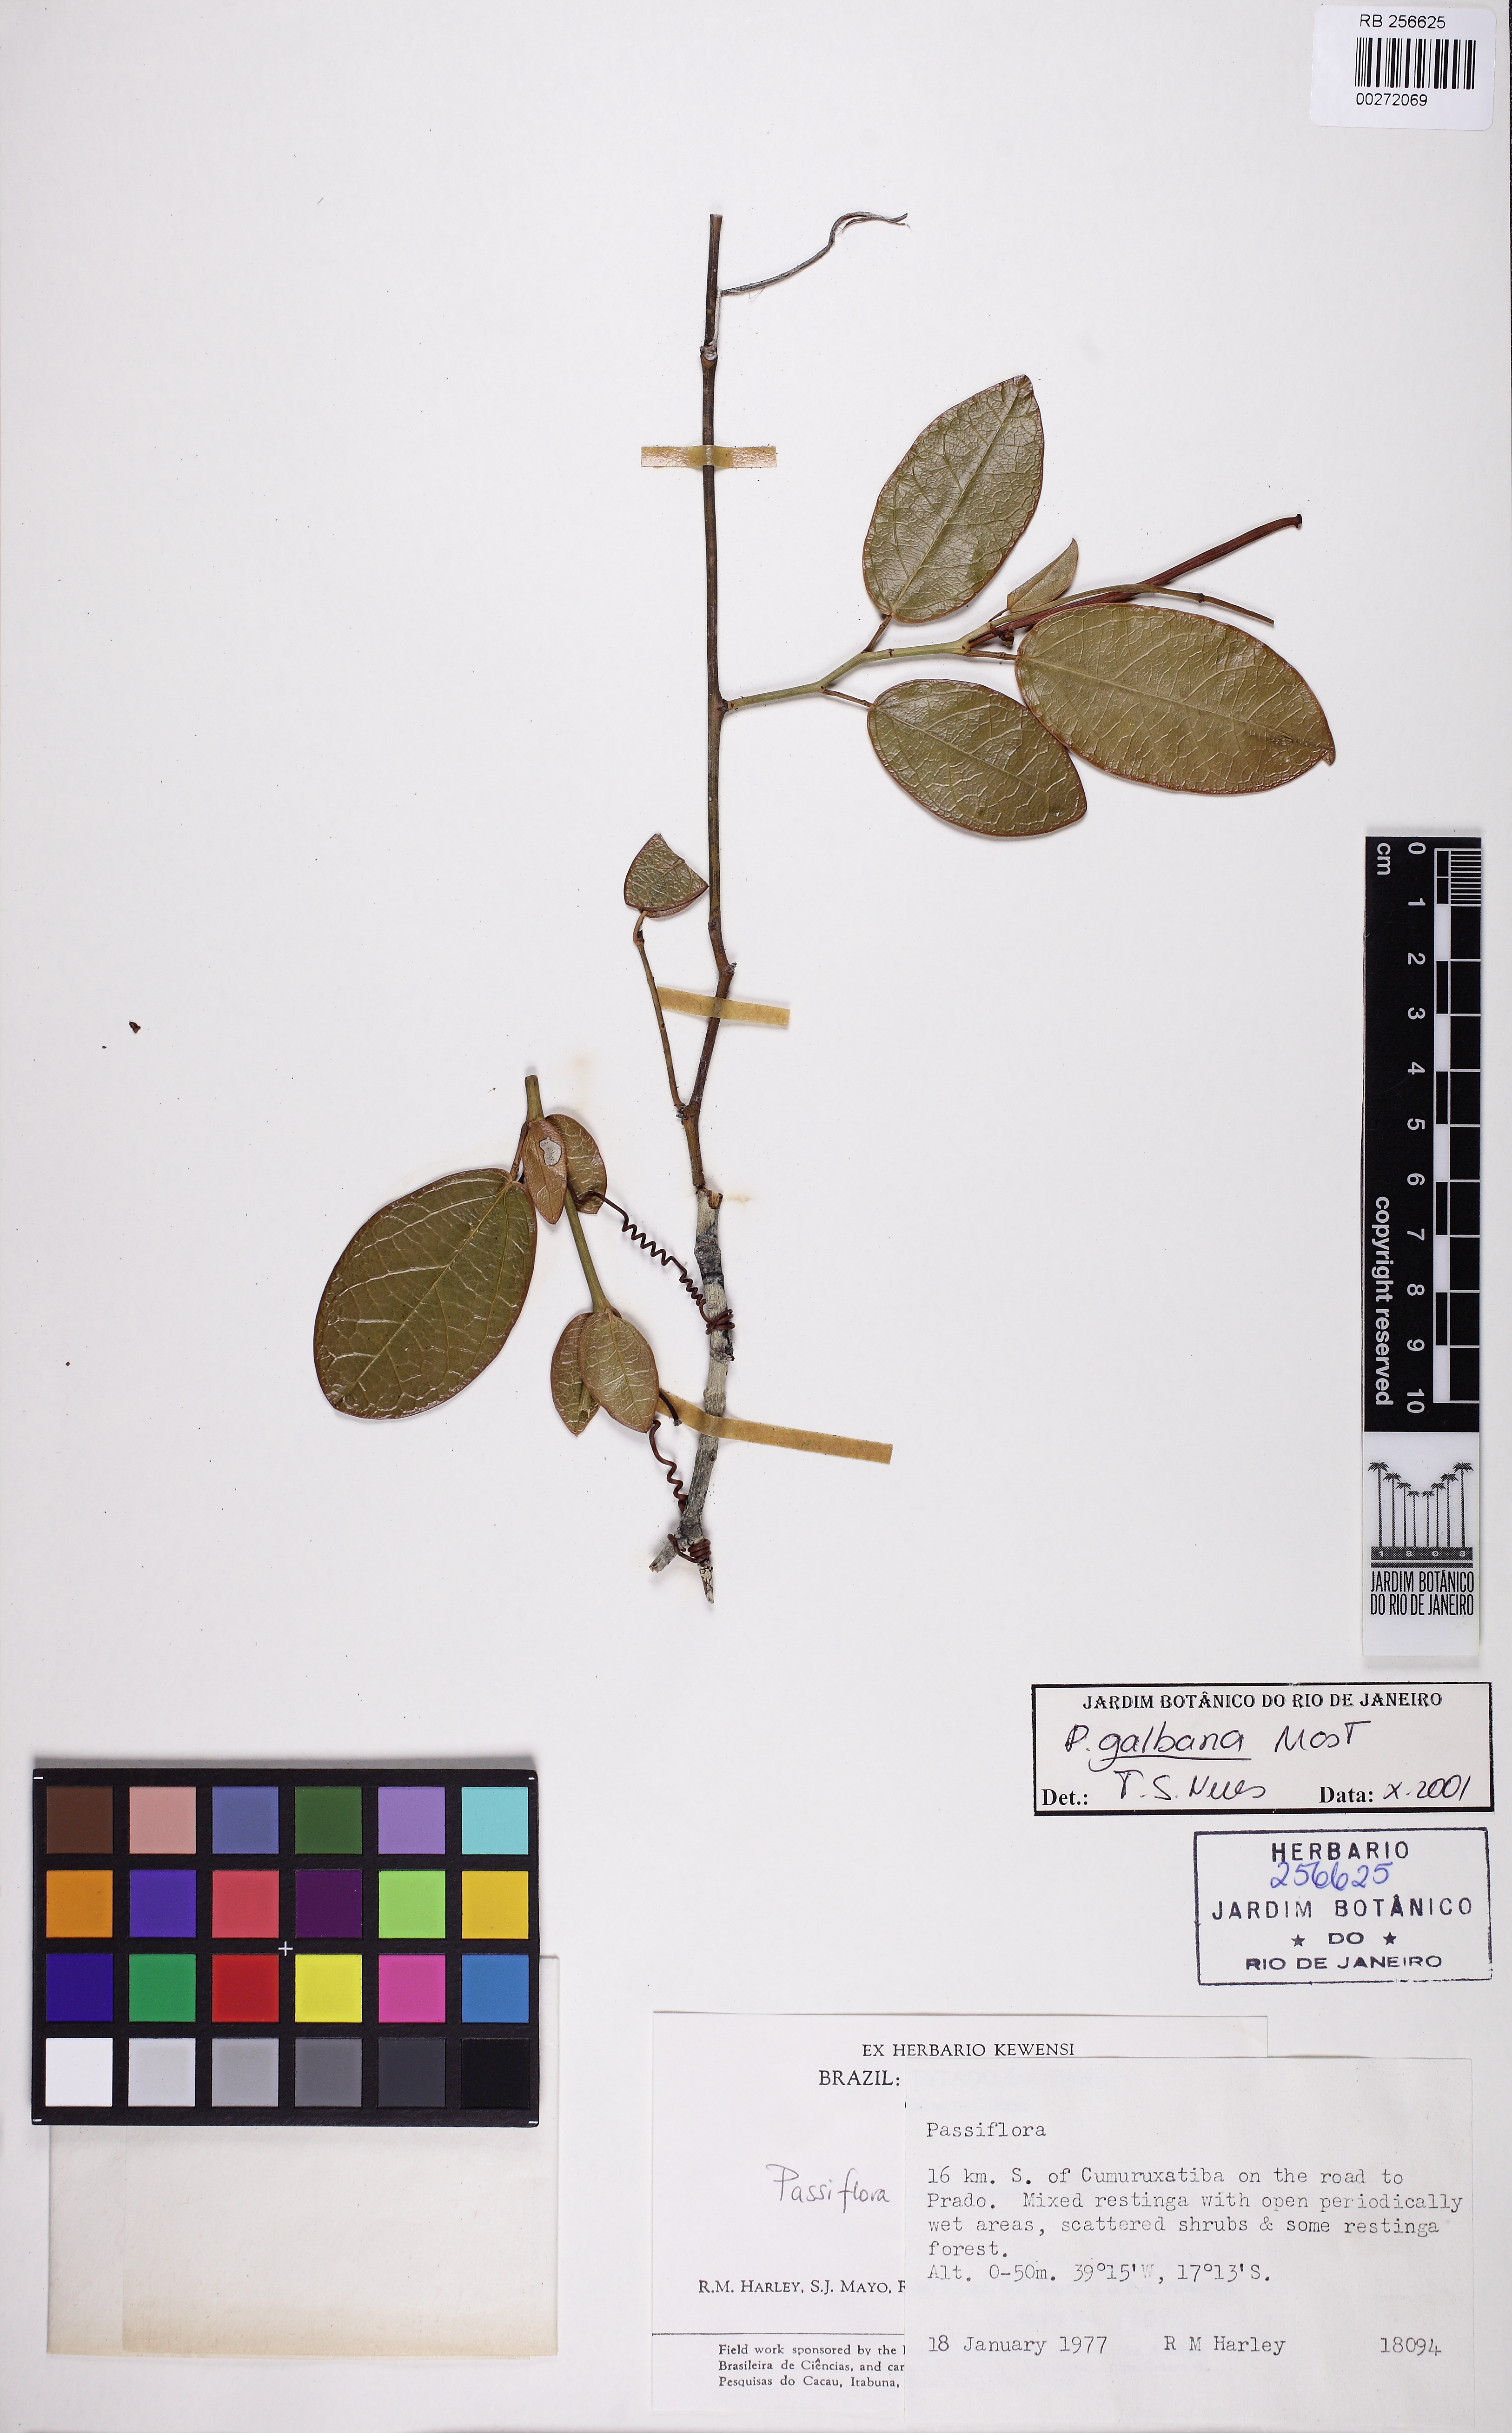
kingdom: Plantae
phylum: Tracheophyta
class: Magnoliopsida
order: Malpighiales
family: Passifloraceae
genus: Passiflora
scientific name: Passiflora silvestris
